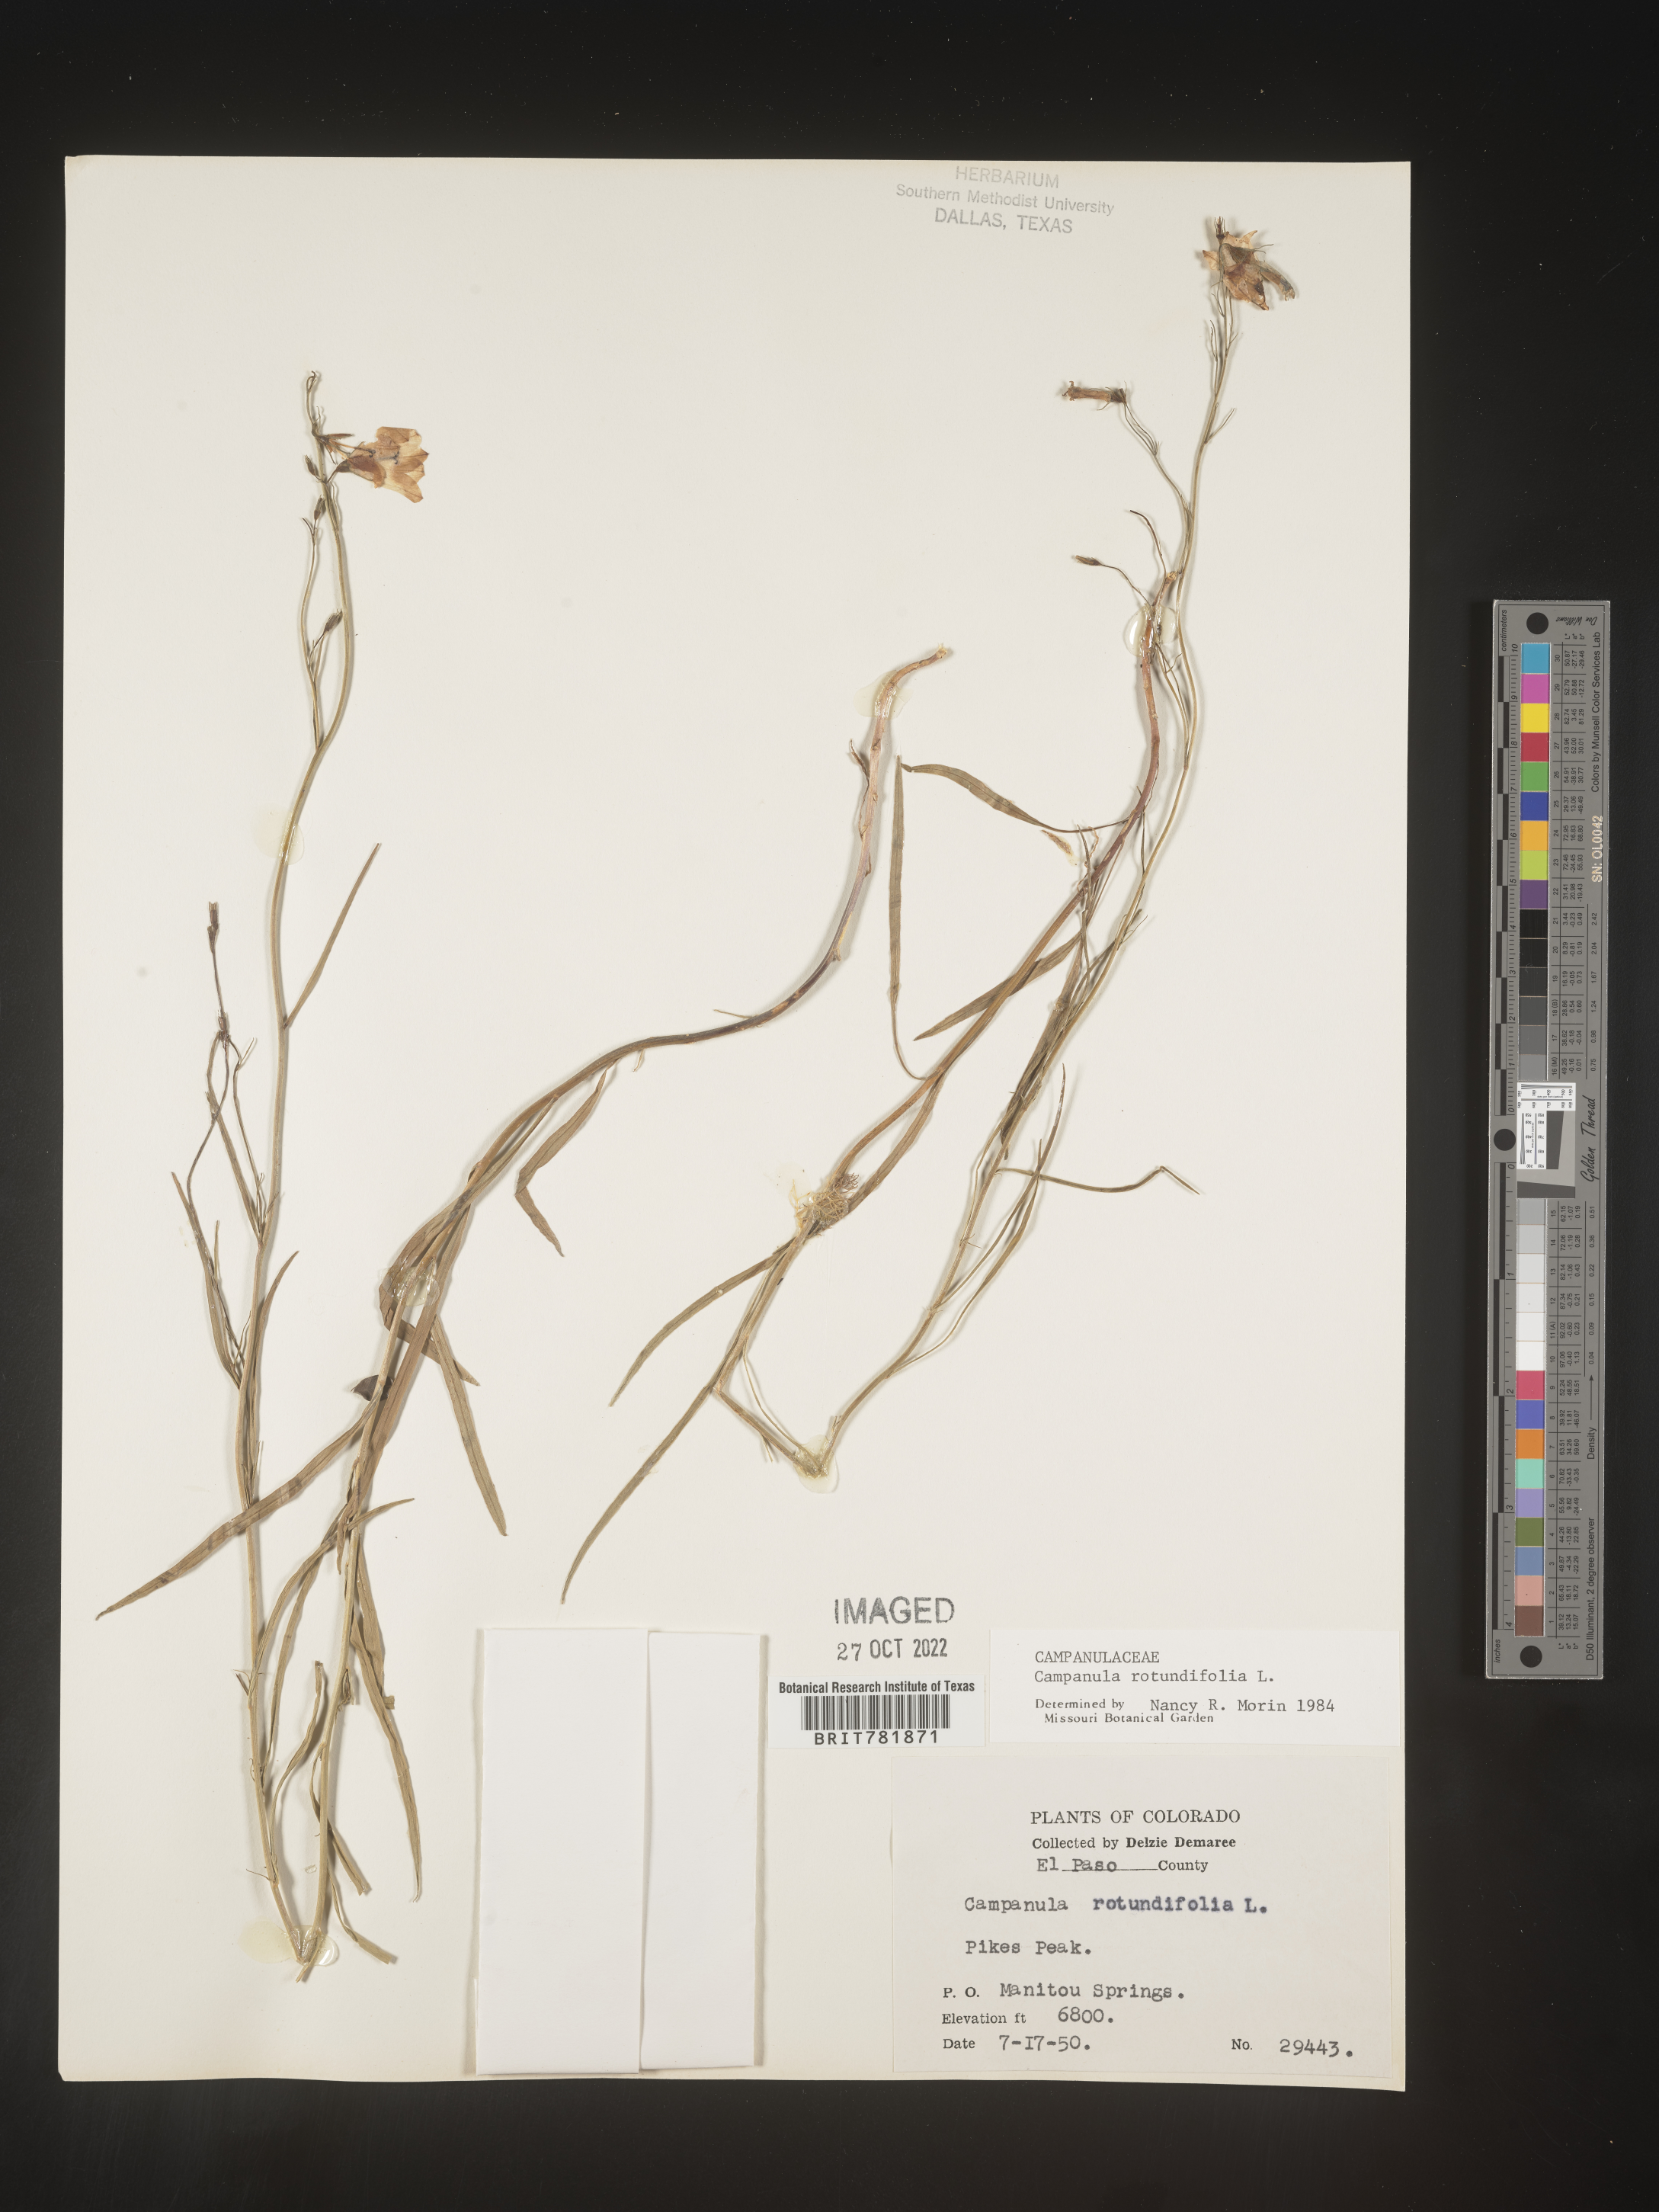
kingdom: Plantae
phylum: Tracheophyta
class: Magnoliopsida
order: Asterales
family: Campanulaceae
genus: Campanula
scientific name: Campanula rotundifolia
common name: Harebell
